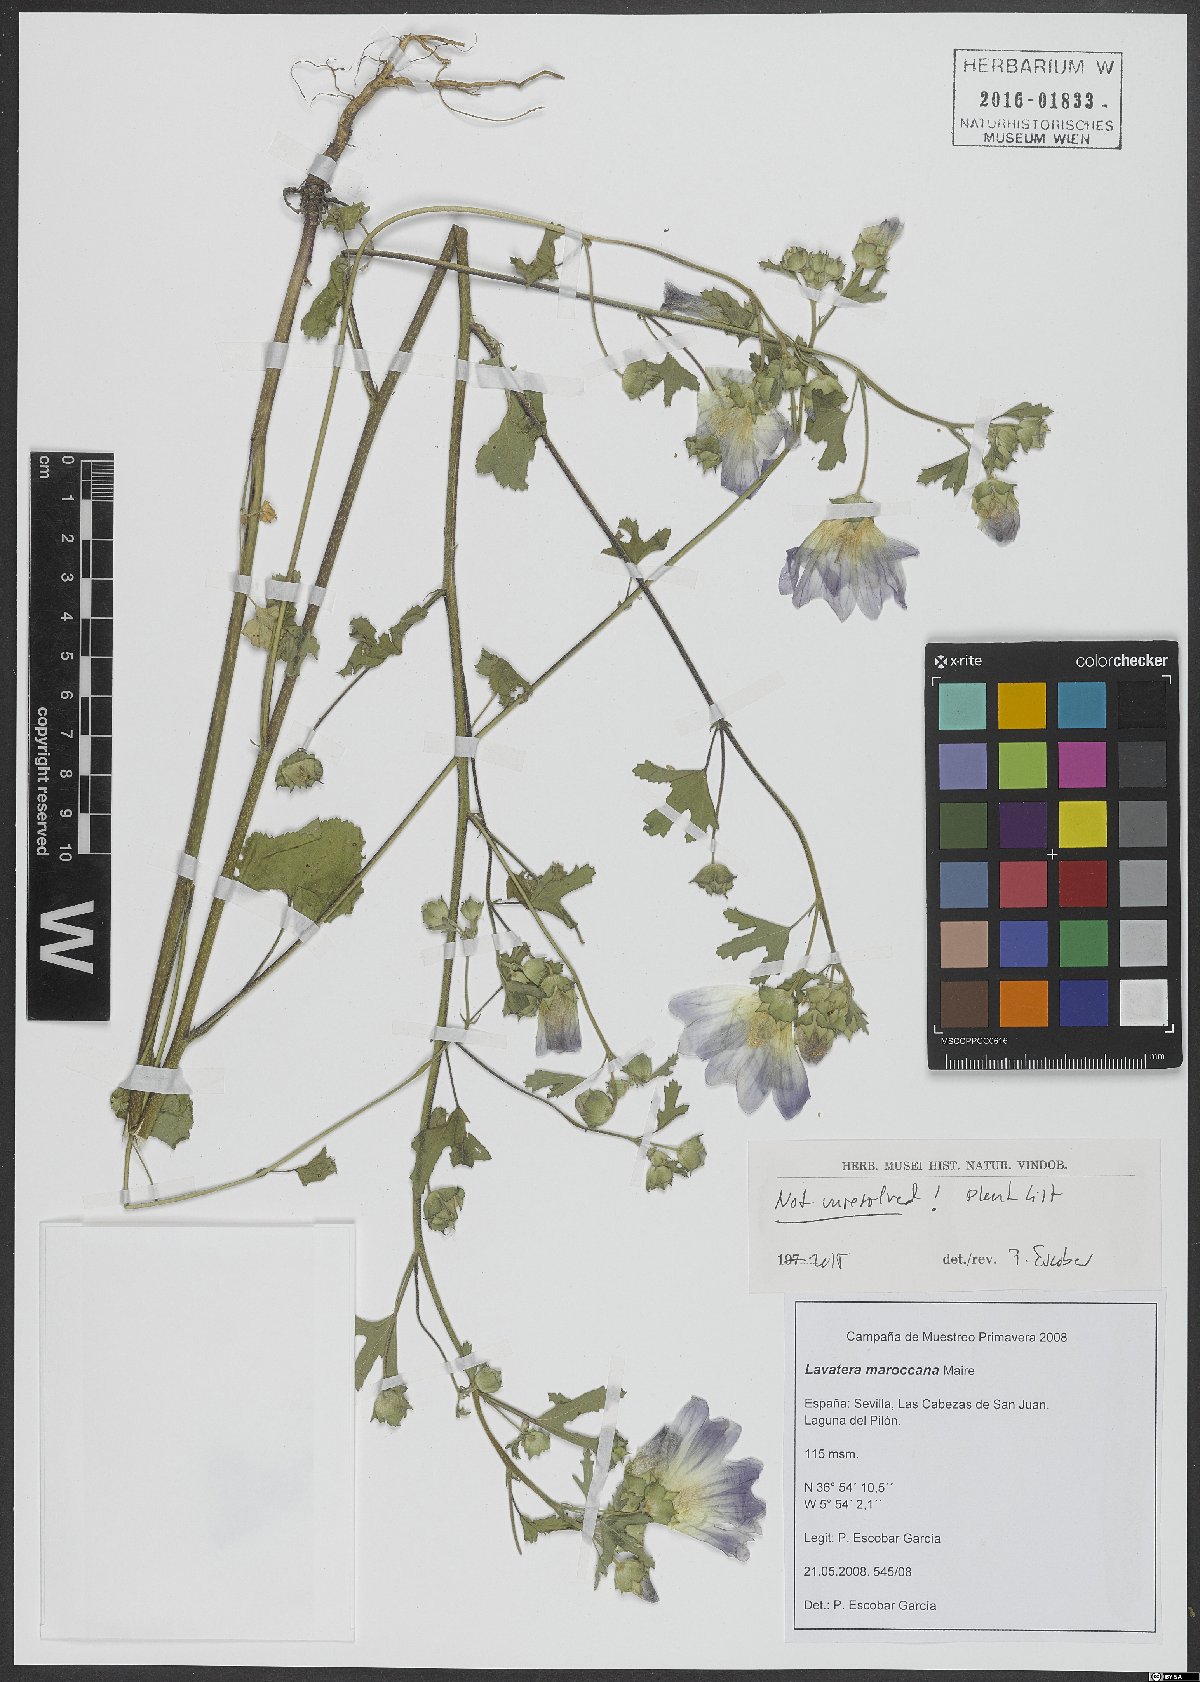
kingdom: Plantae
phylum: Tracheophyta
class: Magnoliopsida
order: Malvales
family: Malvaceae
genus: Malva
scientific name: Malva maroccana
